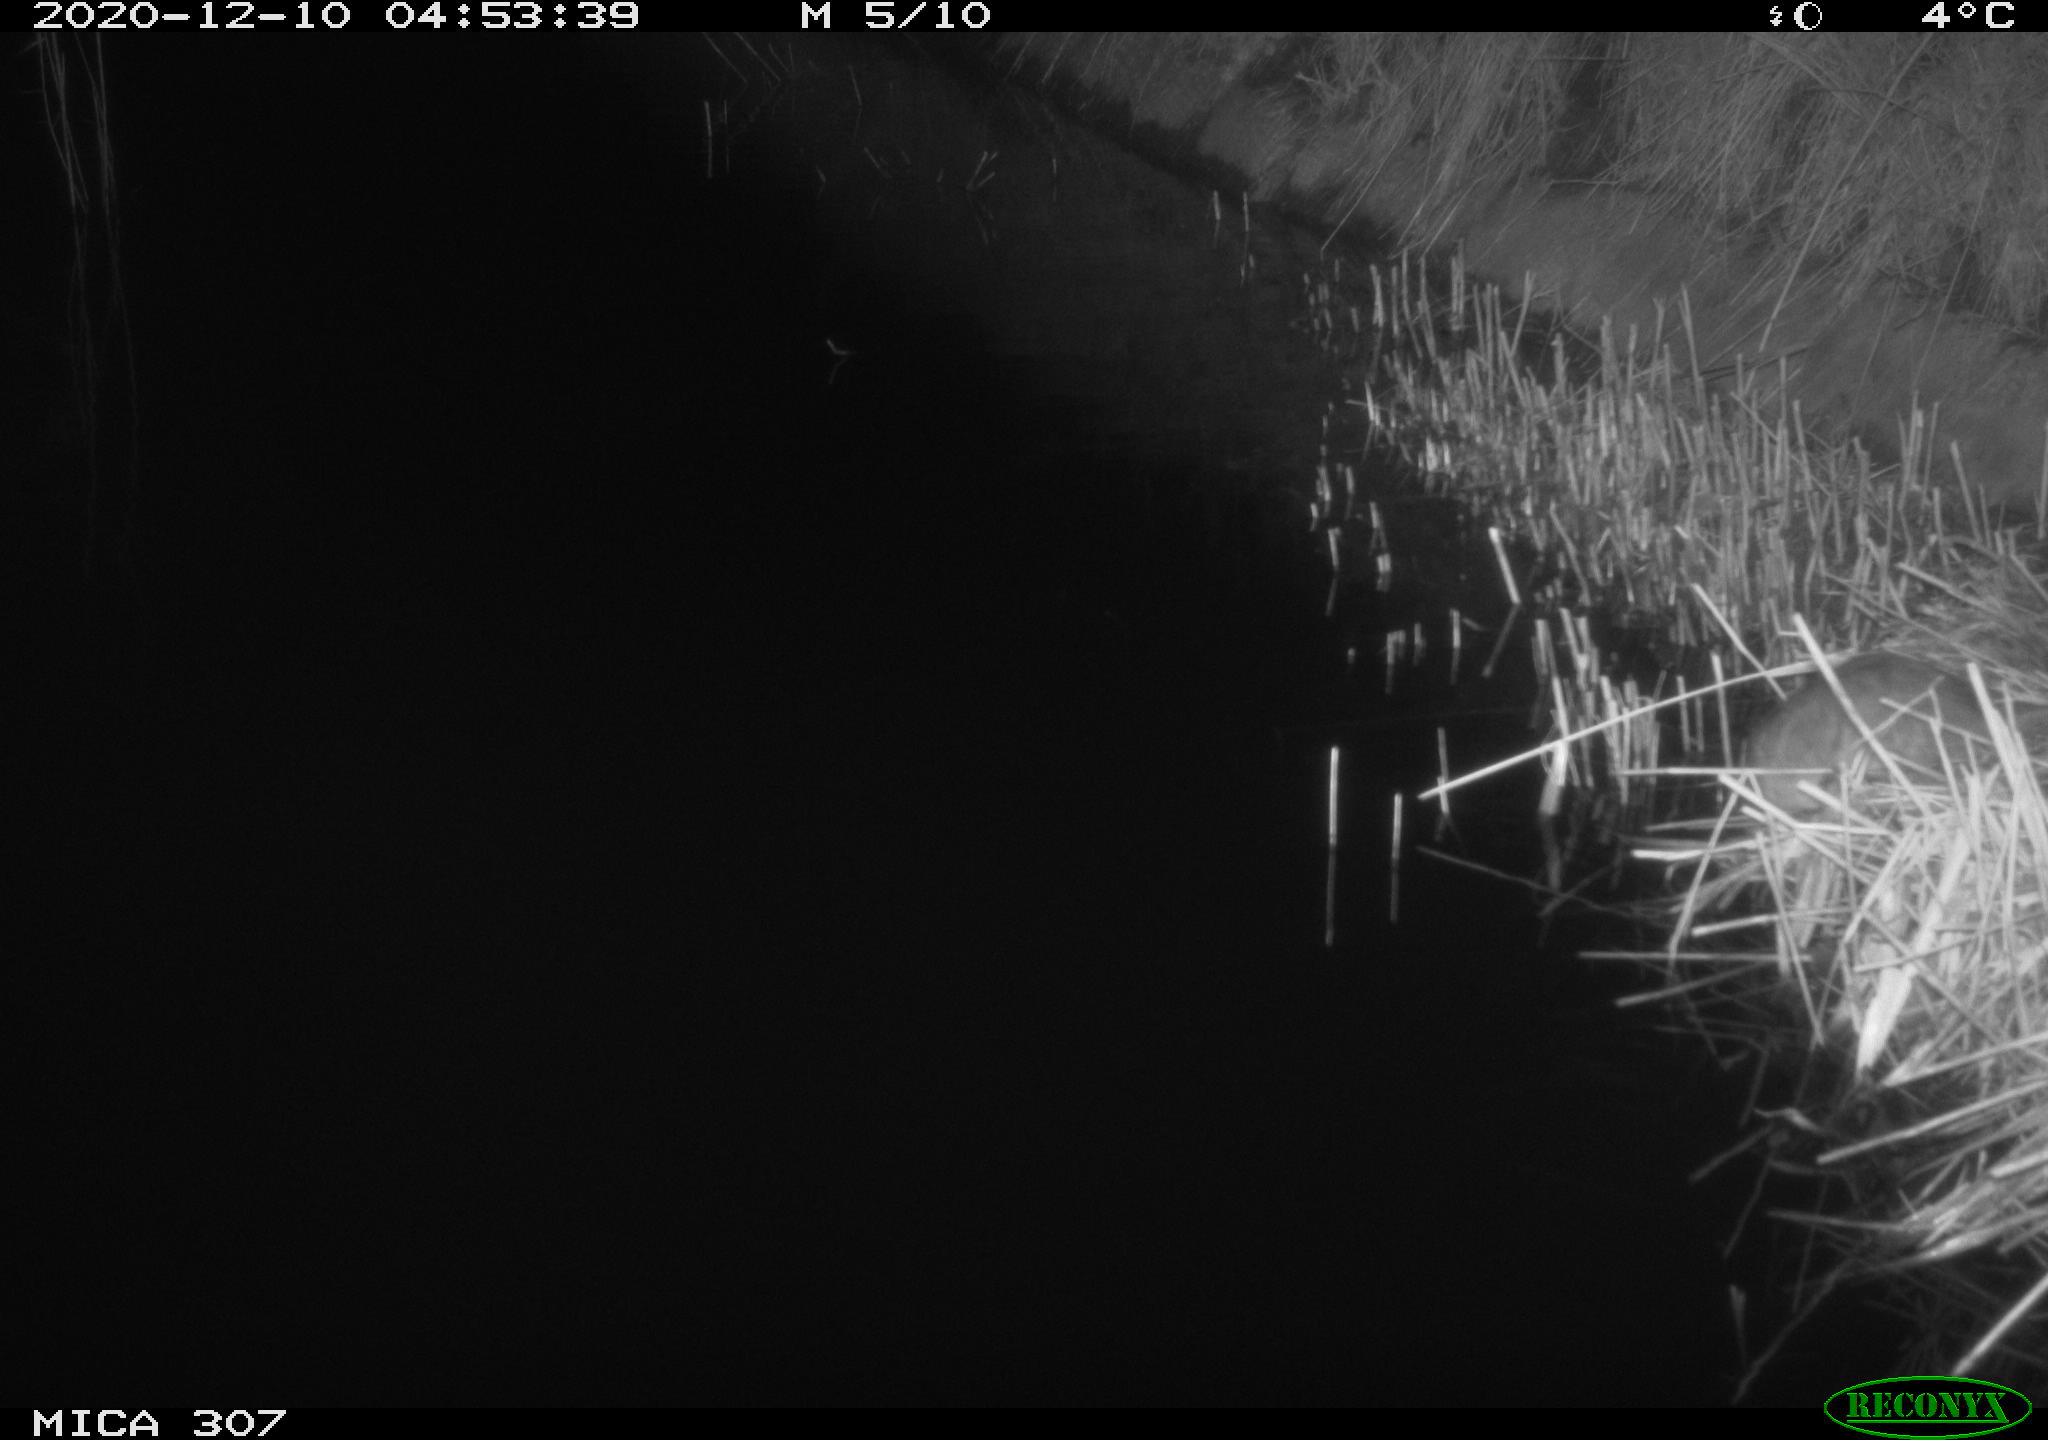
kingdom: Animalia
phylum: Chordata
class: Mammalia
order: Rodentia
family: Muridae
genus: Rattus
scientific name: Rattus norvegicus
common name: Brown rat
